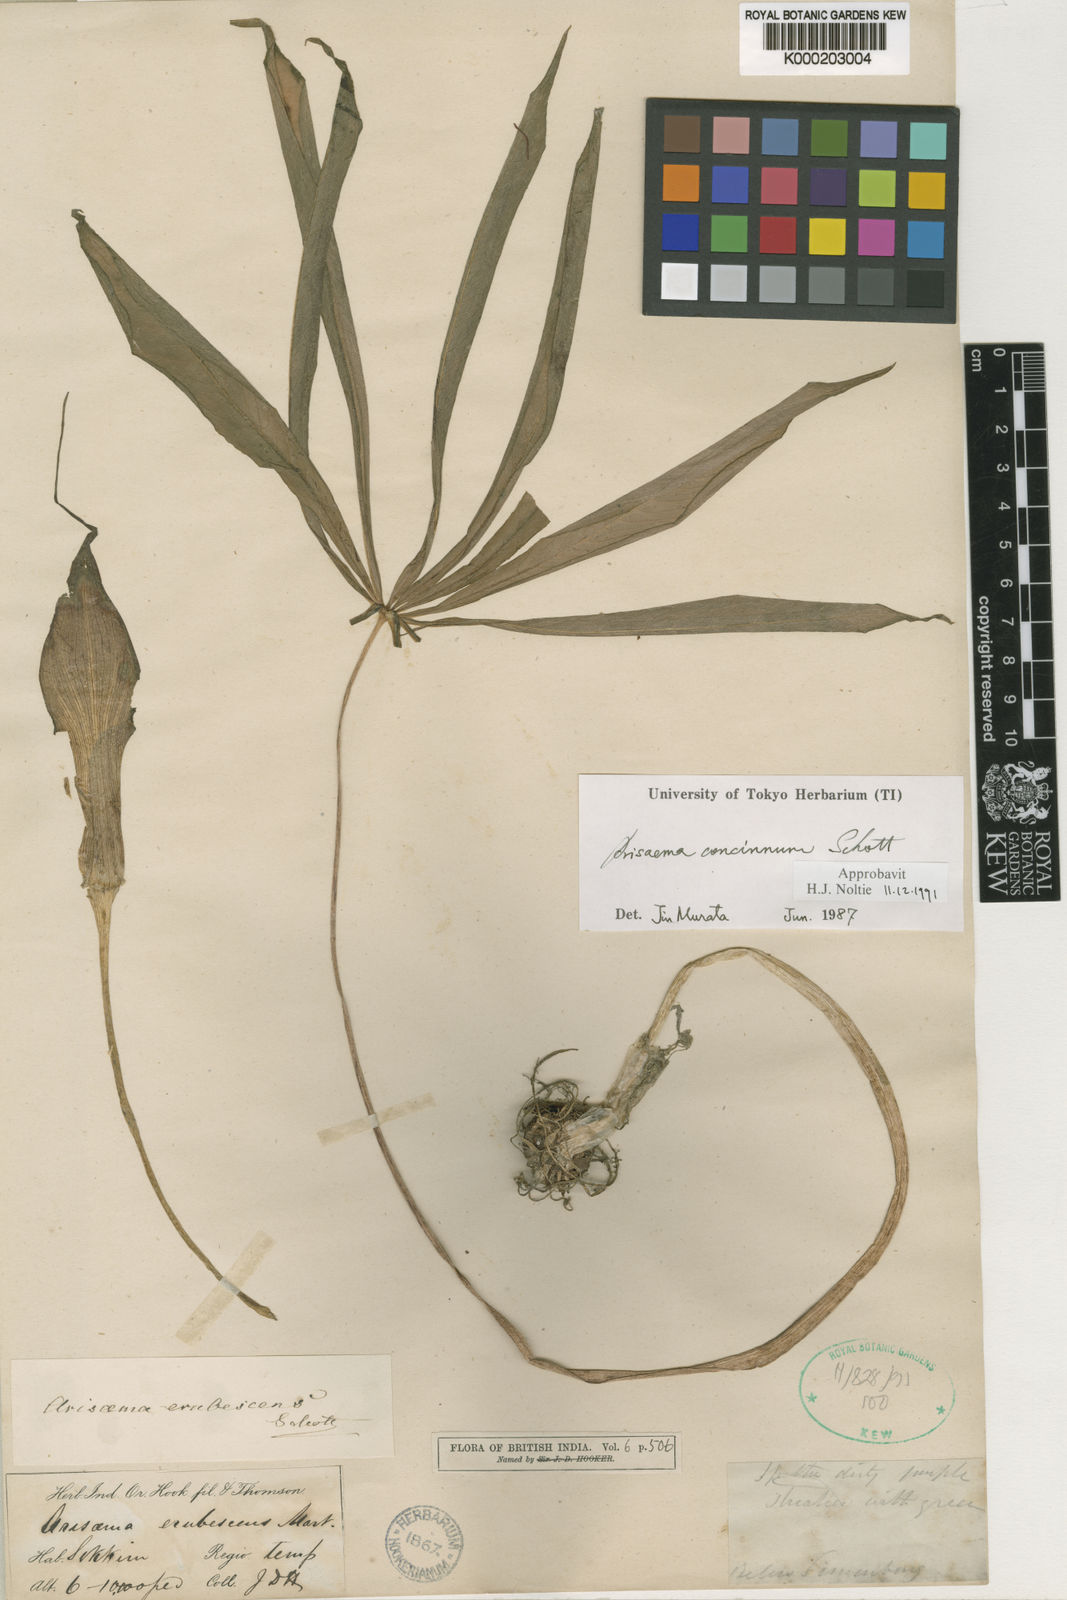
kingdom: Plantae
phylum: Tracheophyta
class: Liliopsida
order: Alismatales
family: Araceae
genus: Arisaema
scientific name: Arisaema concinnum
